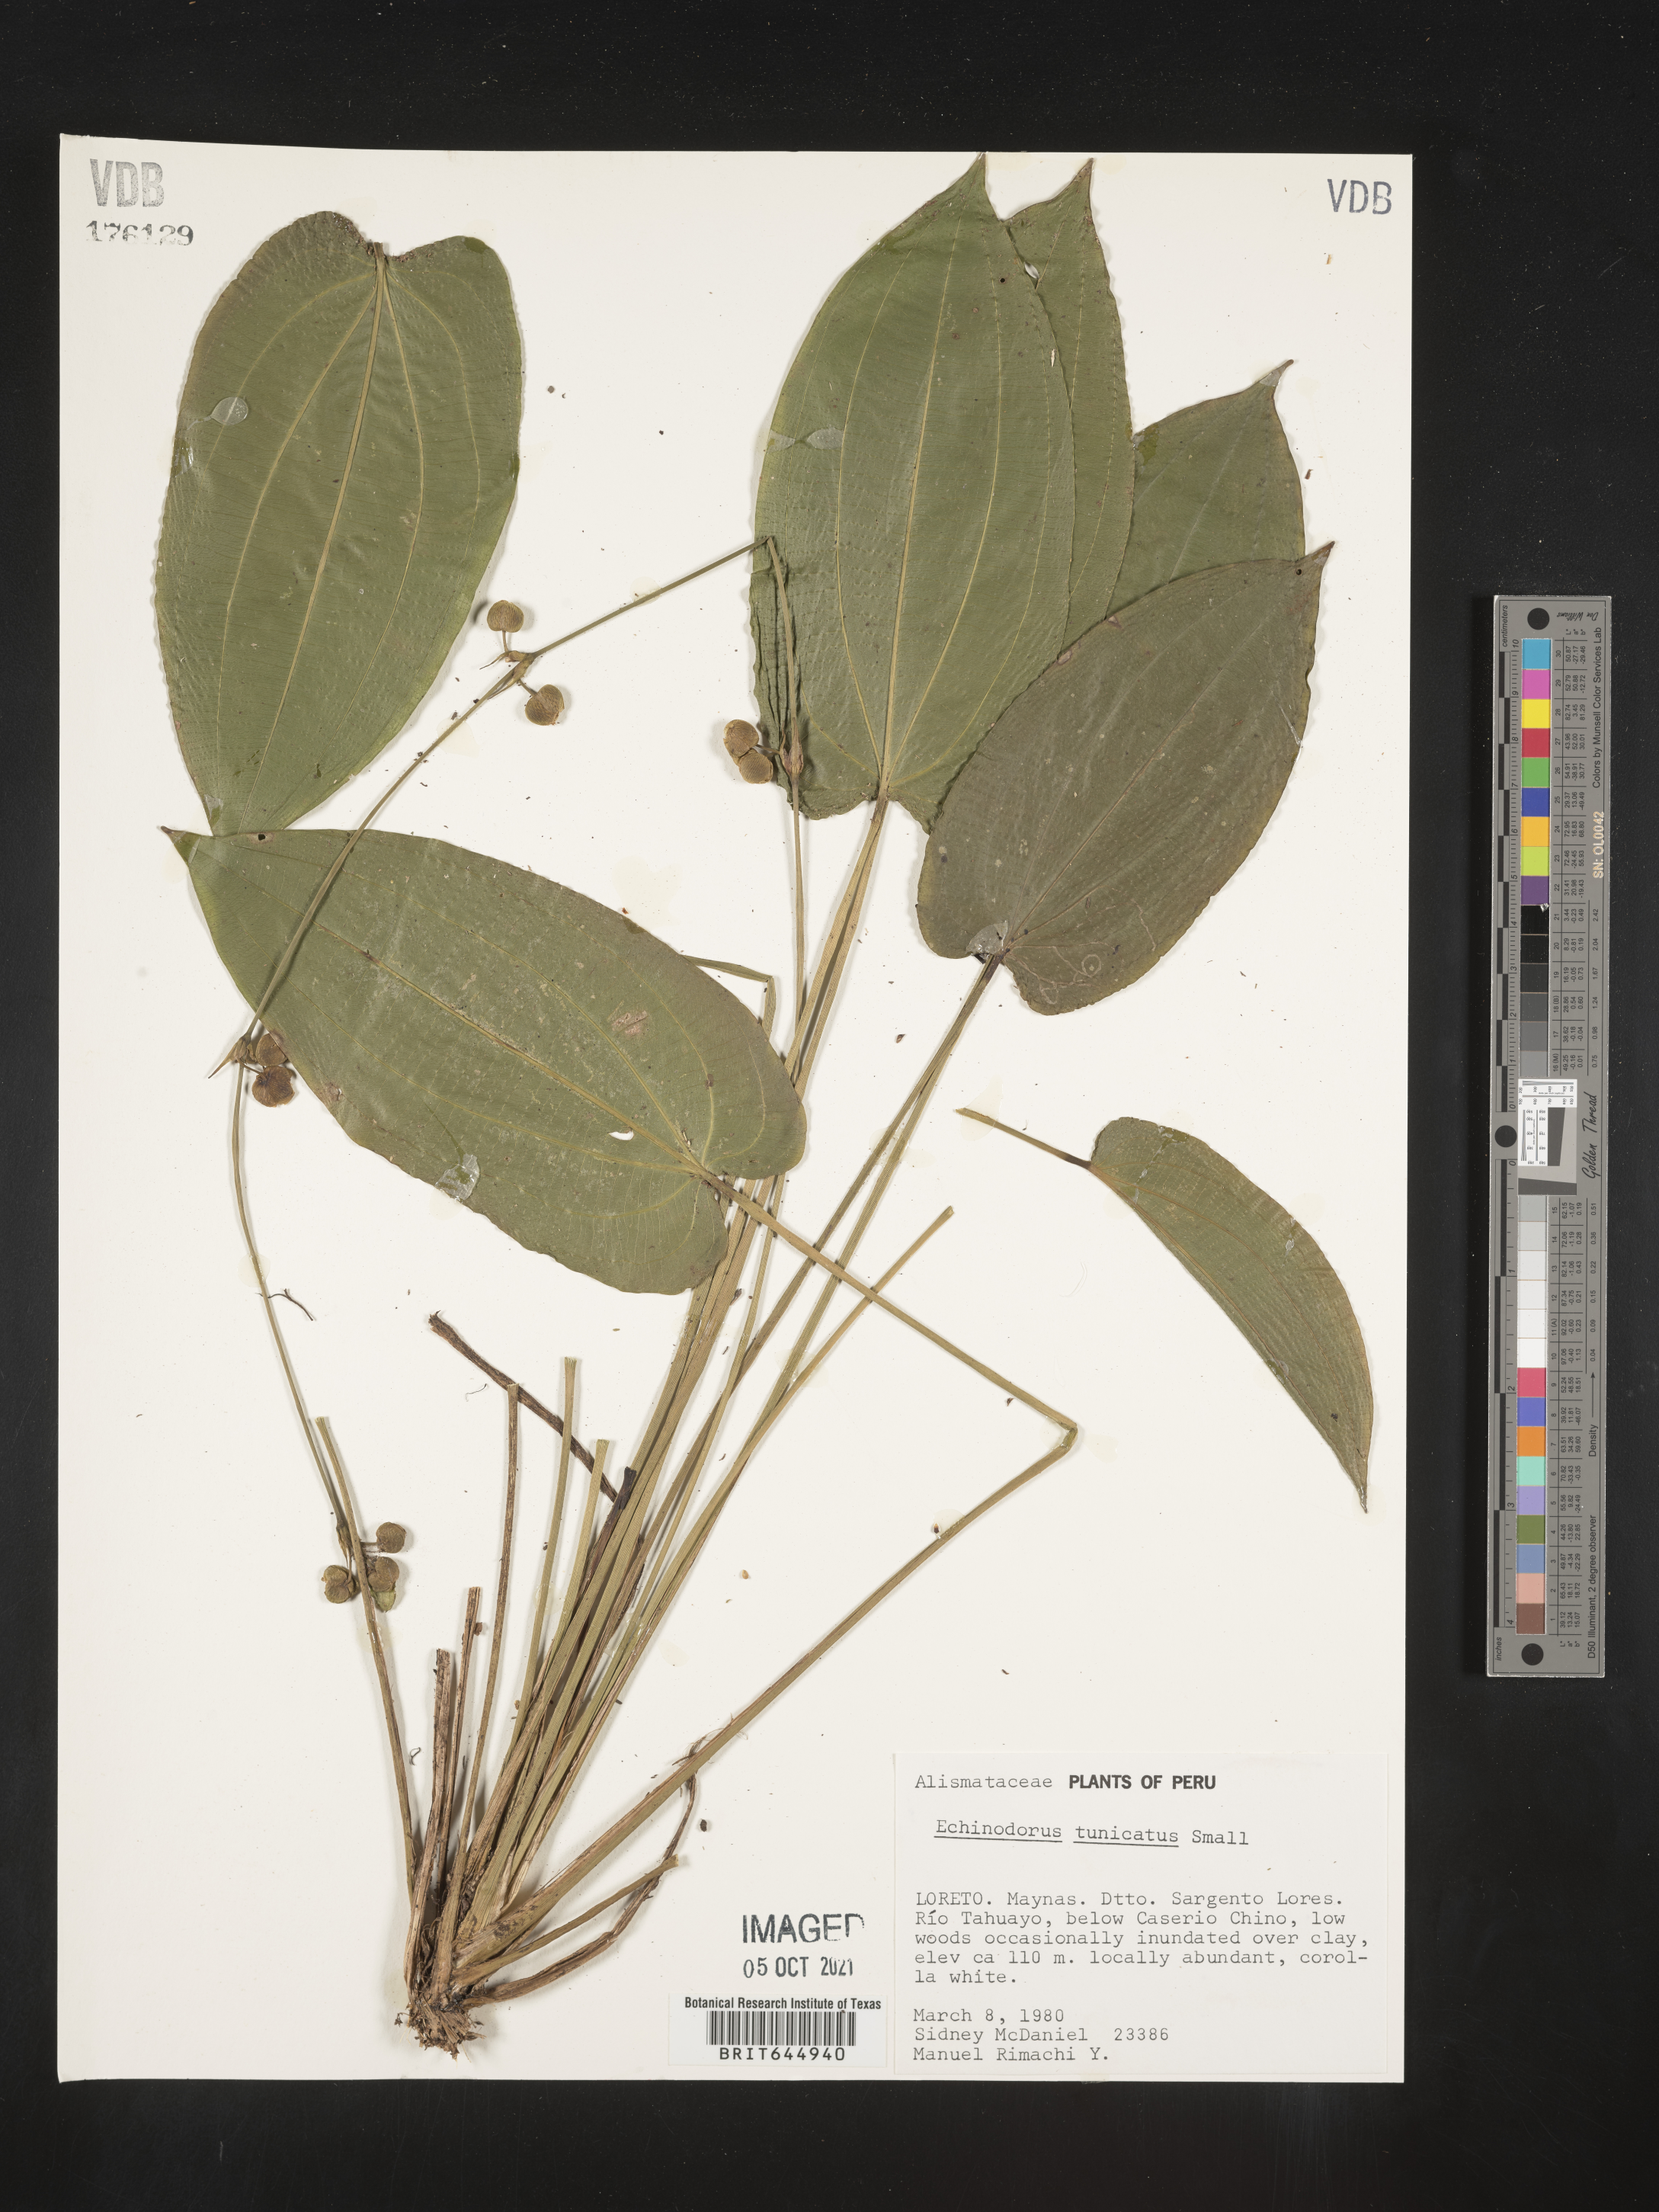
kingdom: Plantae
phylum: Tracheophyta
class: Liliopsida
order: Alismatales
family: Alismataceae
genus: Aquarius
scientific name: Aquarius tunicatus
